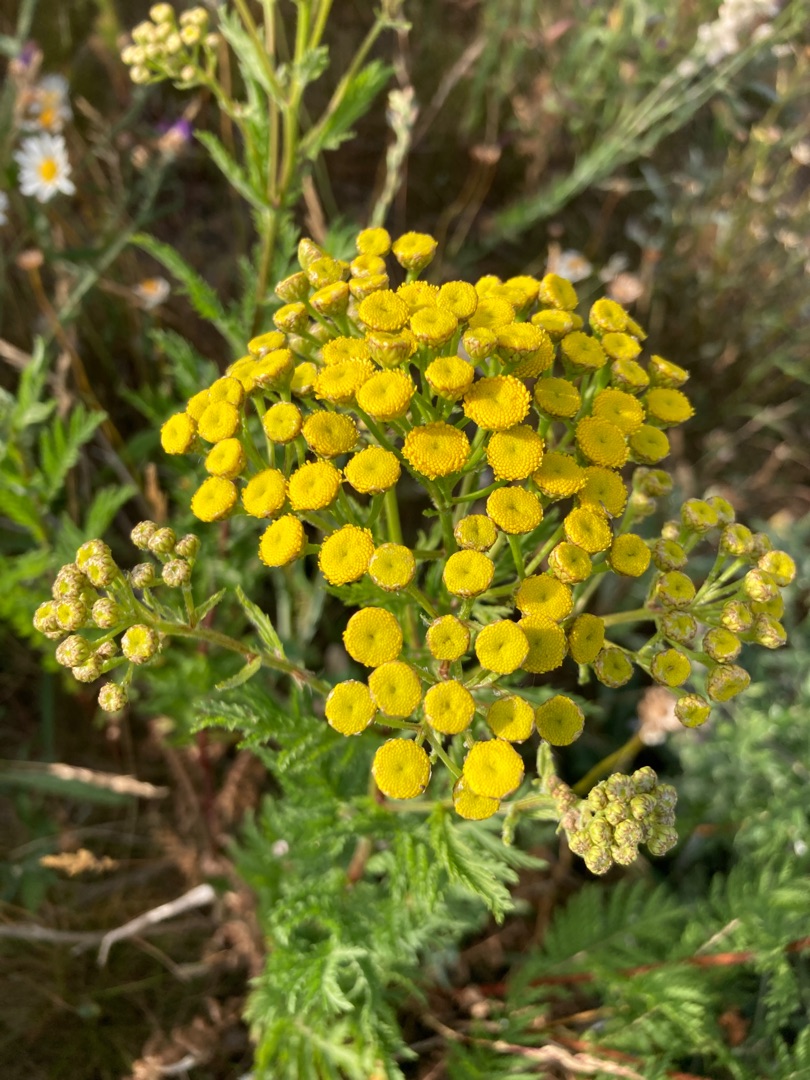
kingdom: Plantae
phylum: Tracheophyta
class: Magnoliopsida
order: Asterales
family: Asteraceae
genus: Tanacetum
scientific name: Tanacetum vulgare
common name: Rejnfan
